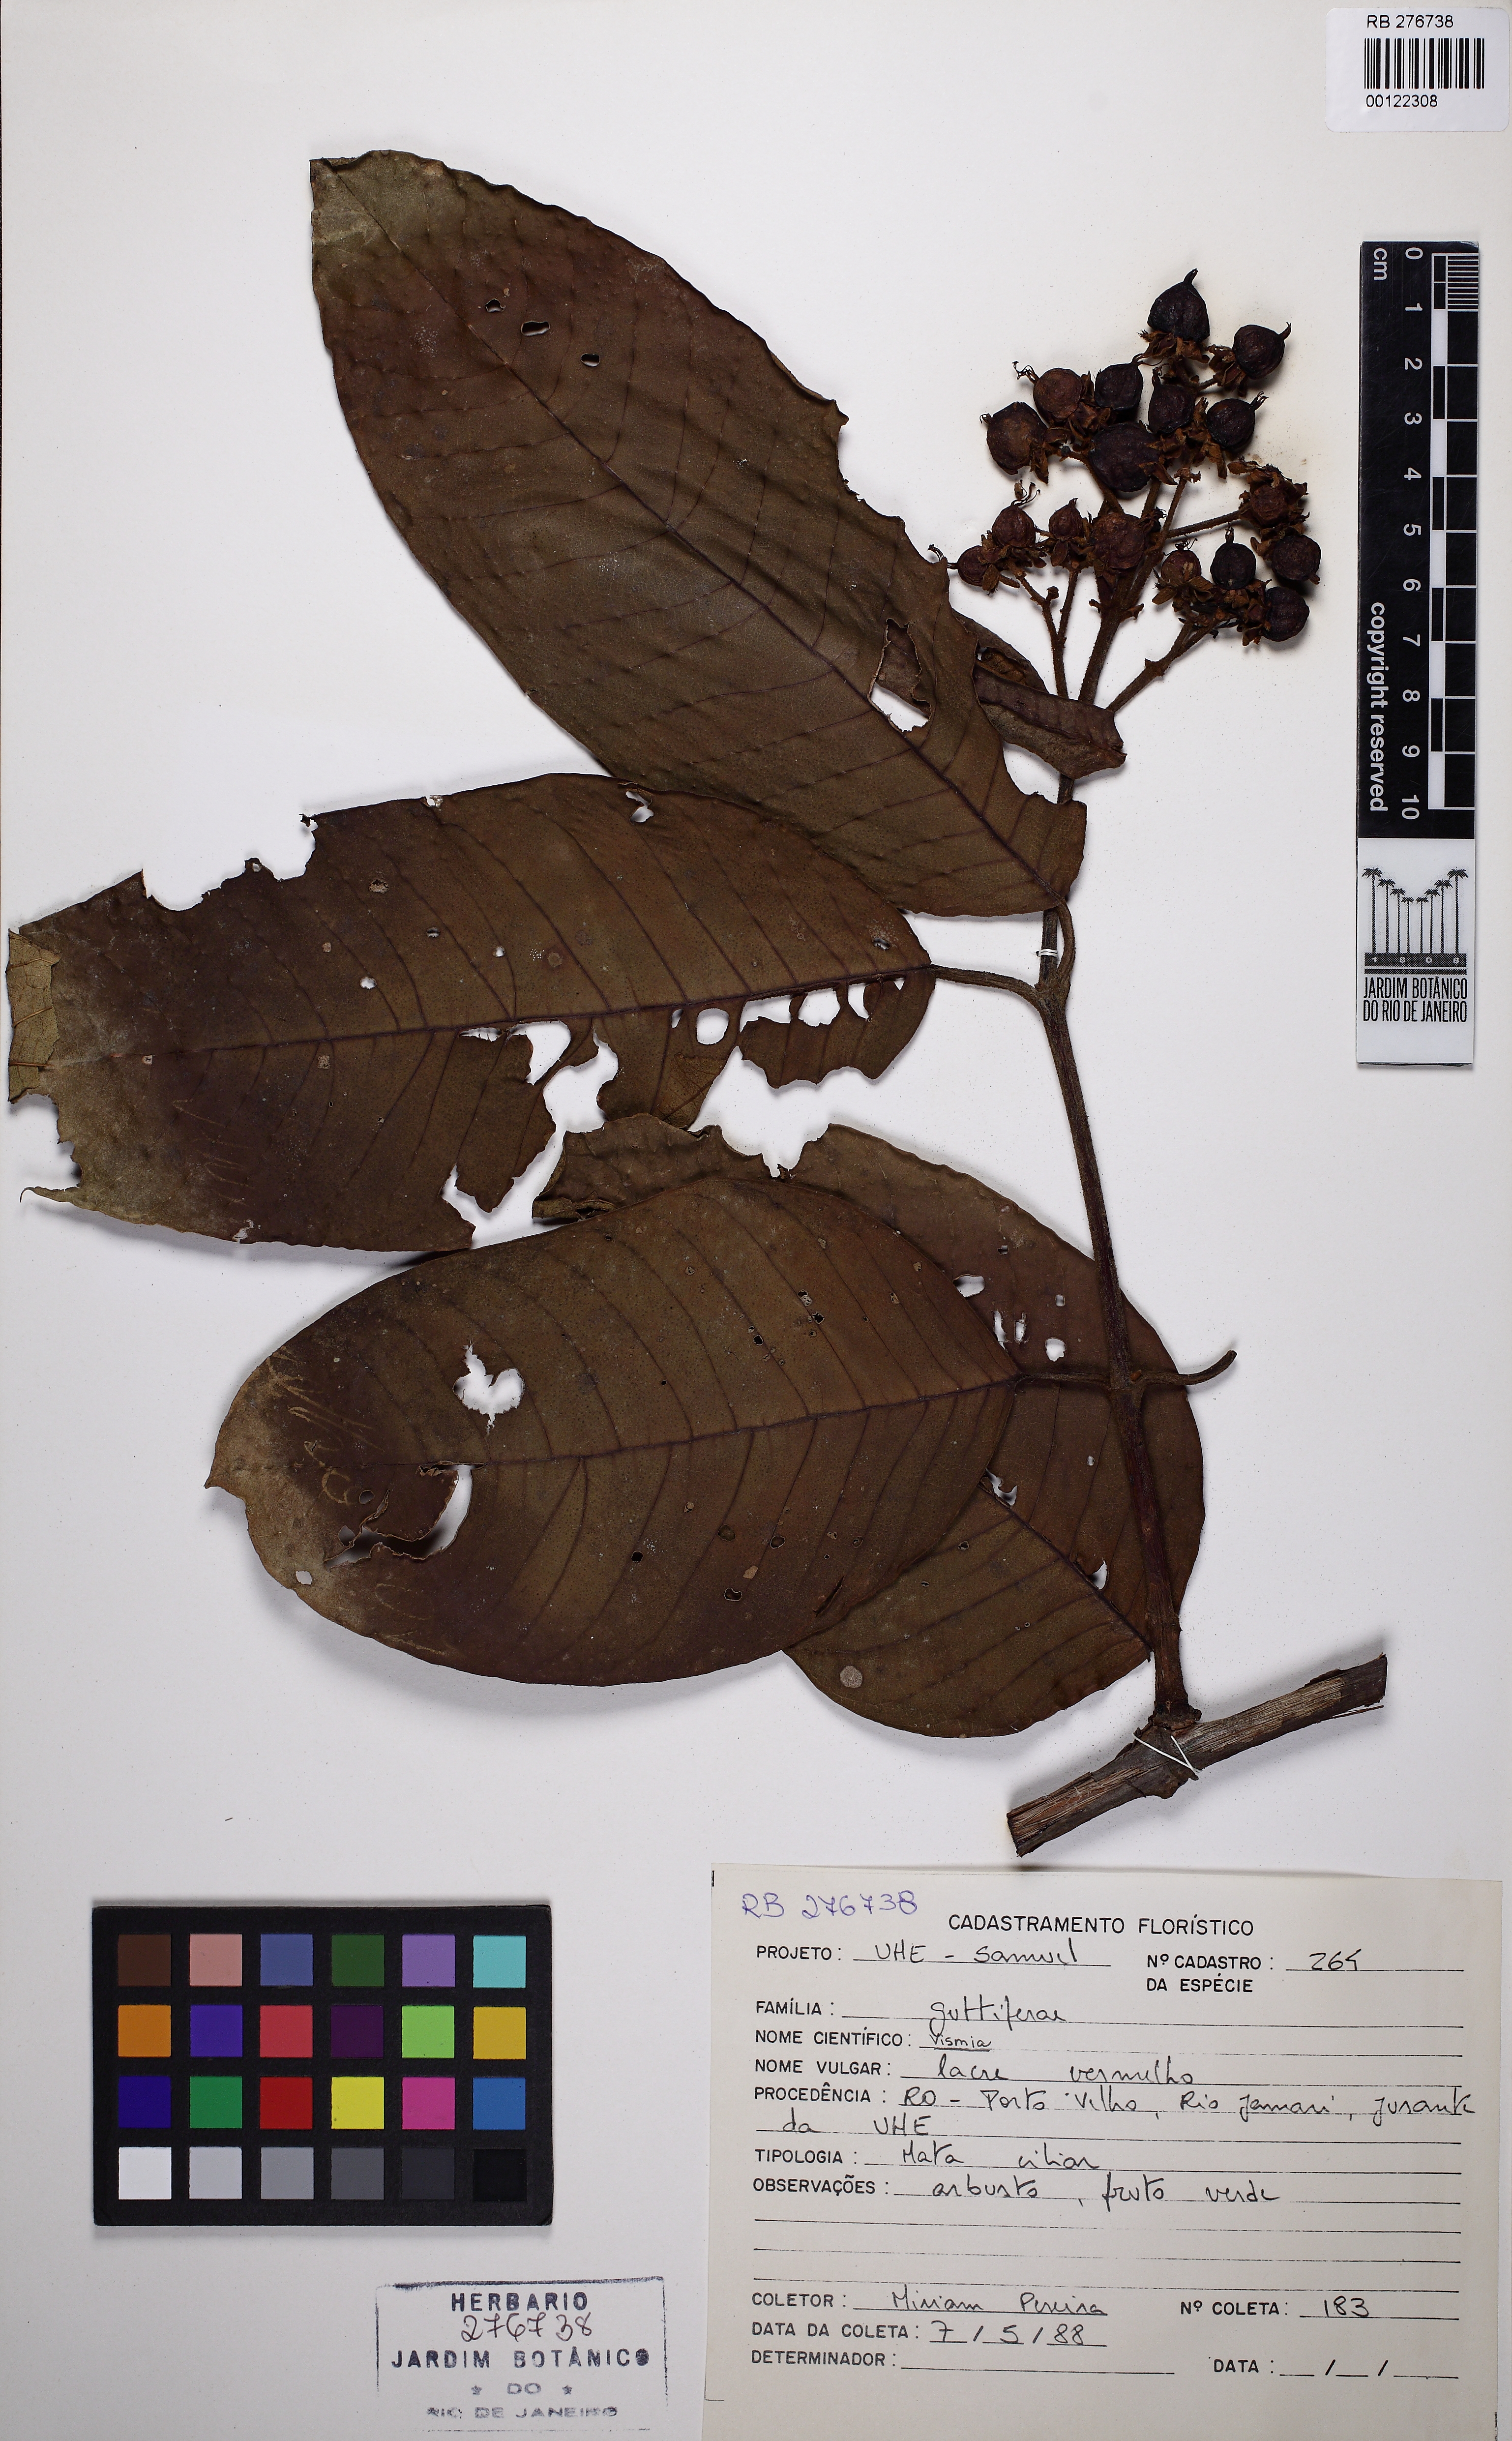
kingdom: Plantae
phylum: Tracheophyta
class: Magnoliopsida
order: Malpighiales
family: Hypericaceae
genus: Vismia
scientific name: Vismia sandwithii
